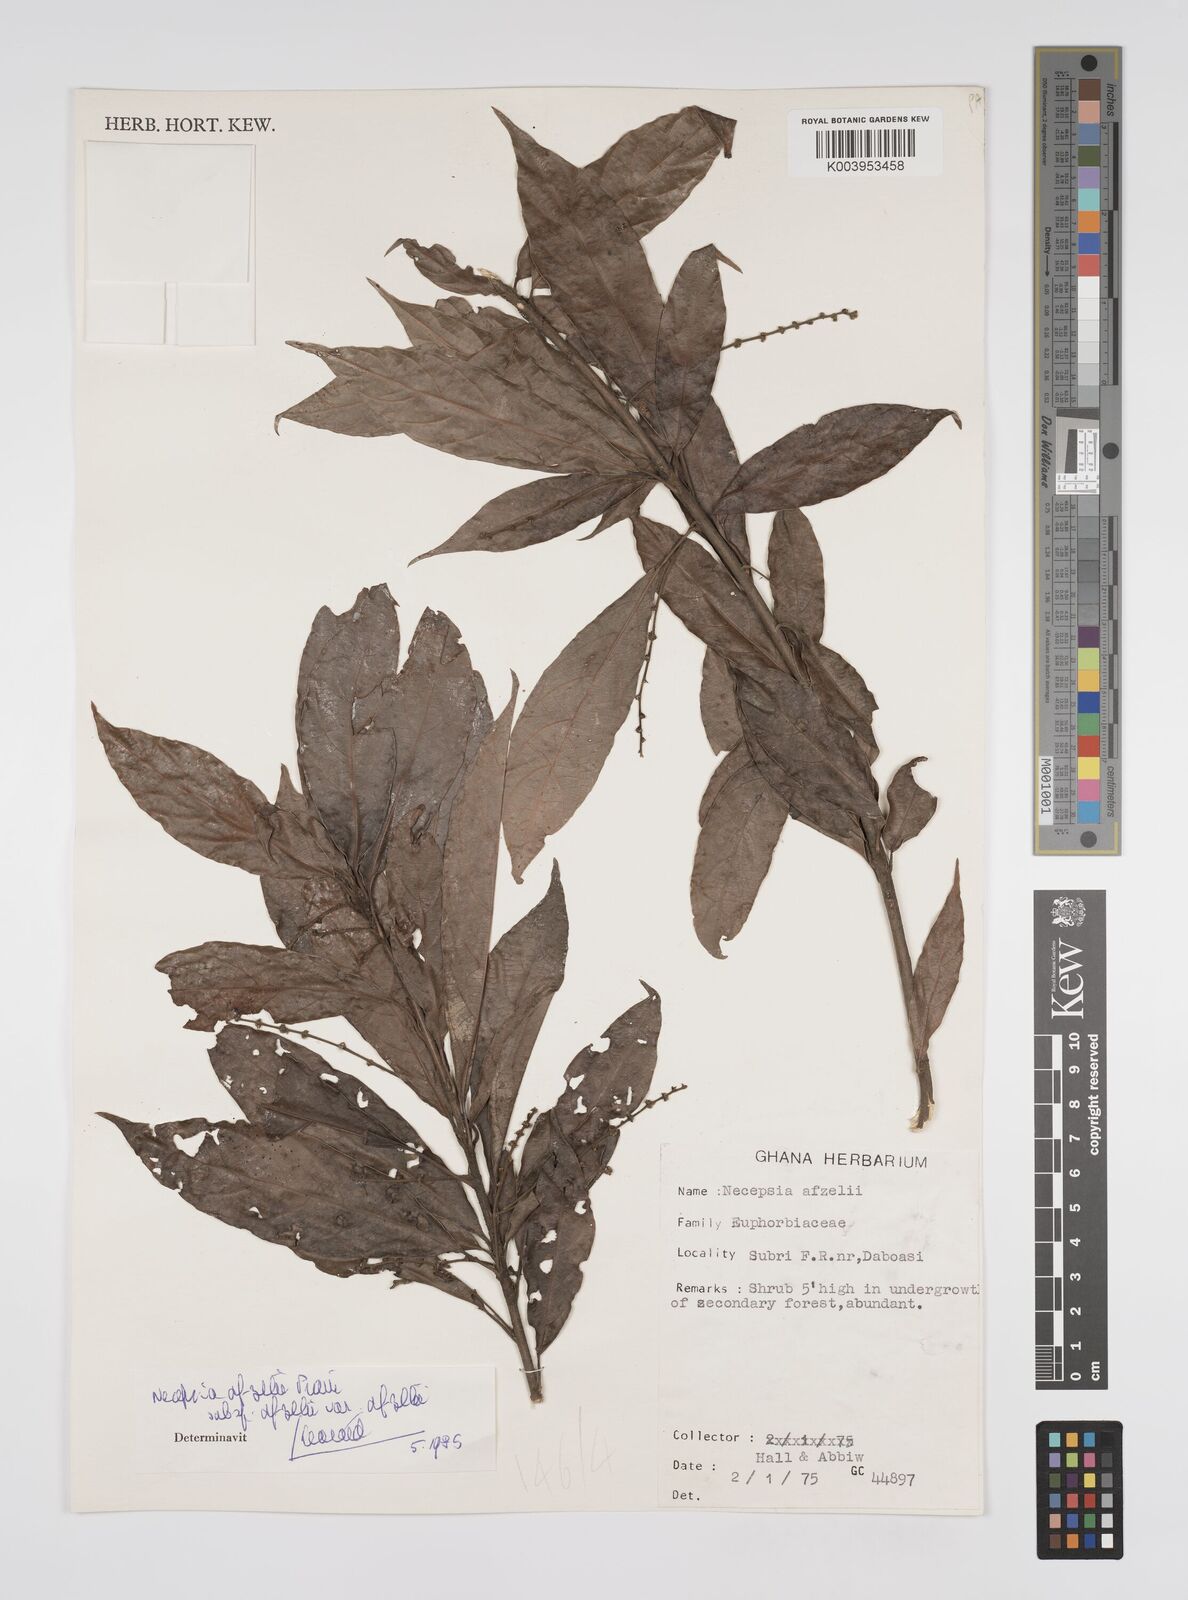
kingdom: Plantae
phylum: Tracheophyta
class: Magnoliopsida
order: Malpighiales
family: Euphorbiaceae
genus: Necepsia
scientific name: Necepsia afzelii
